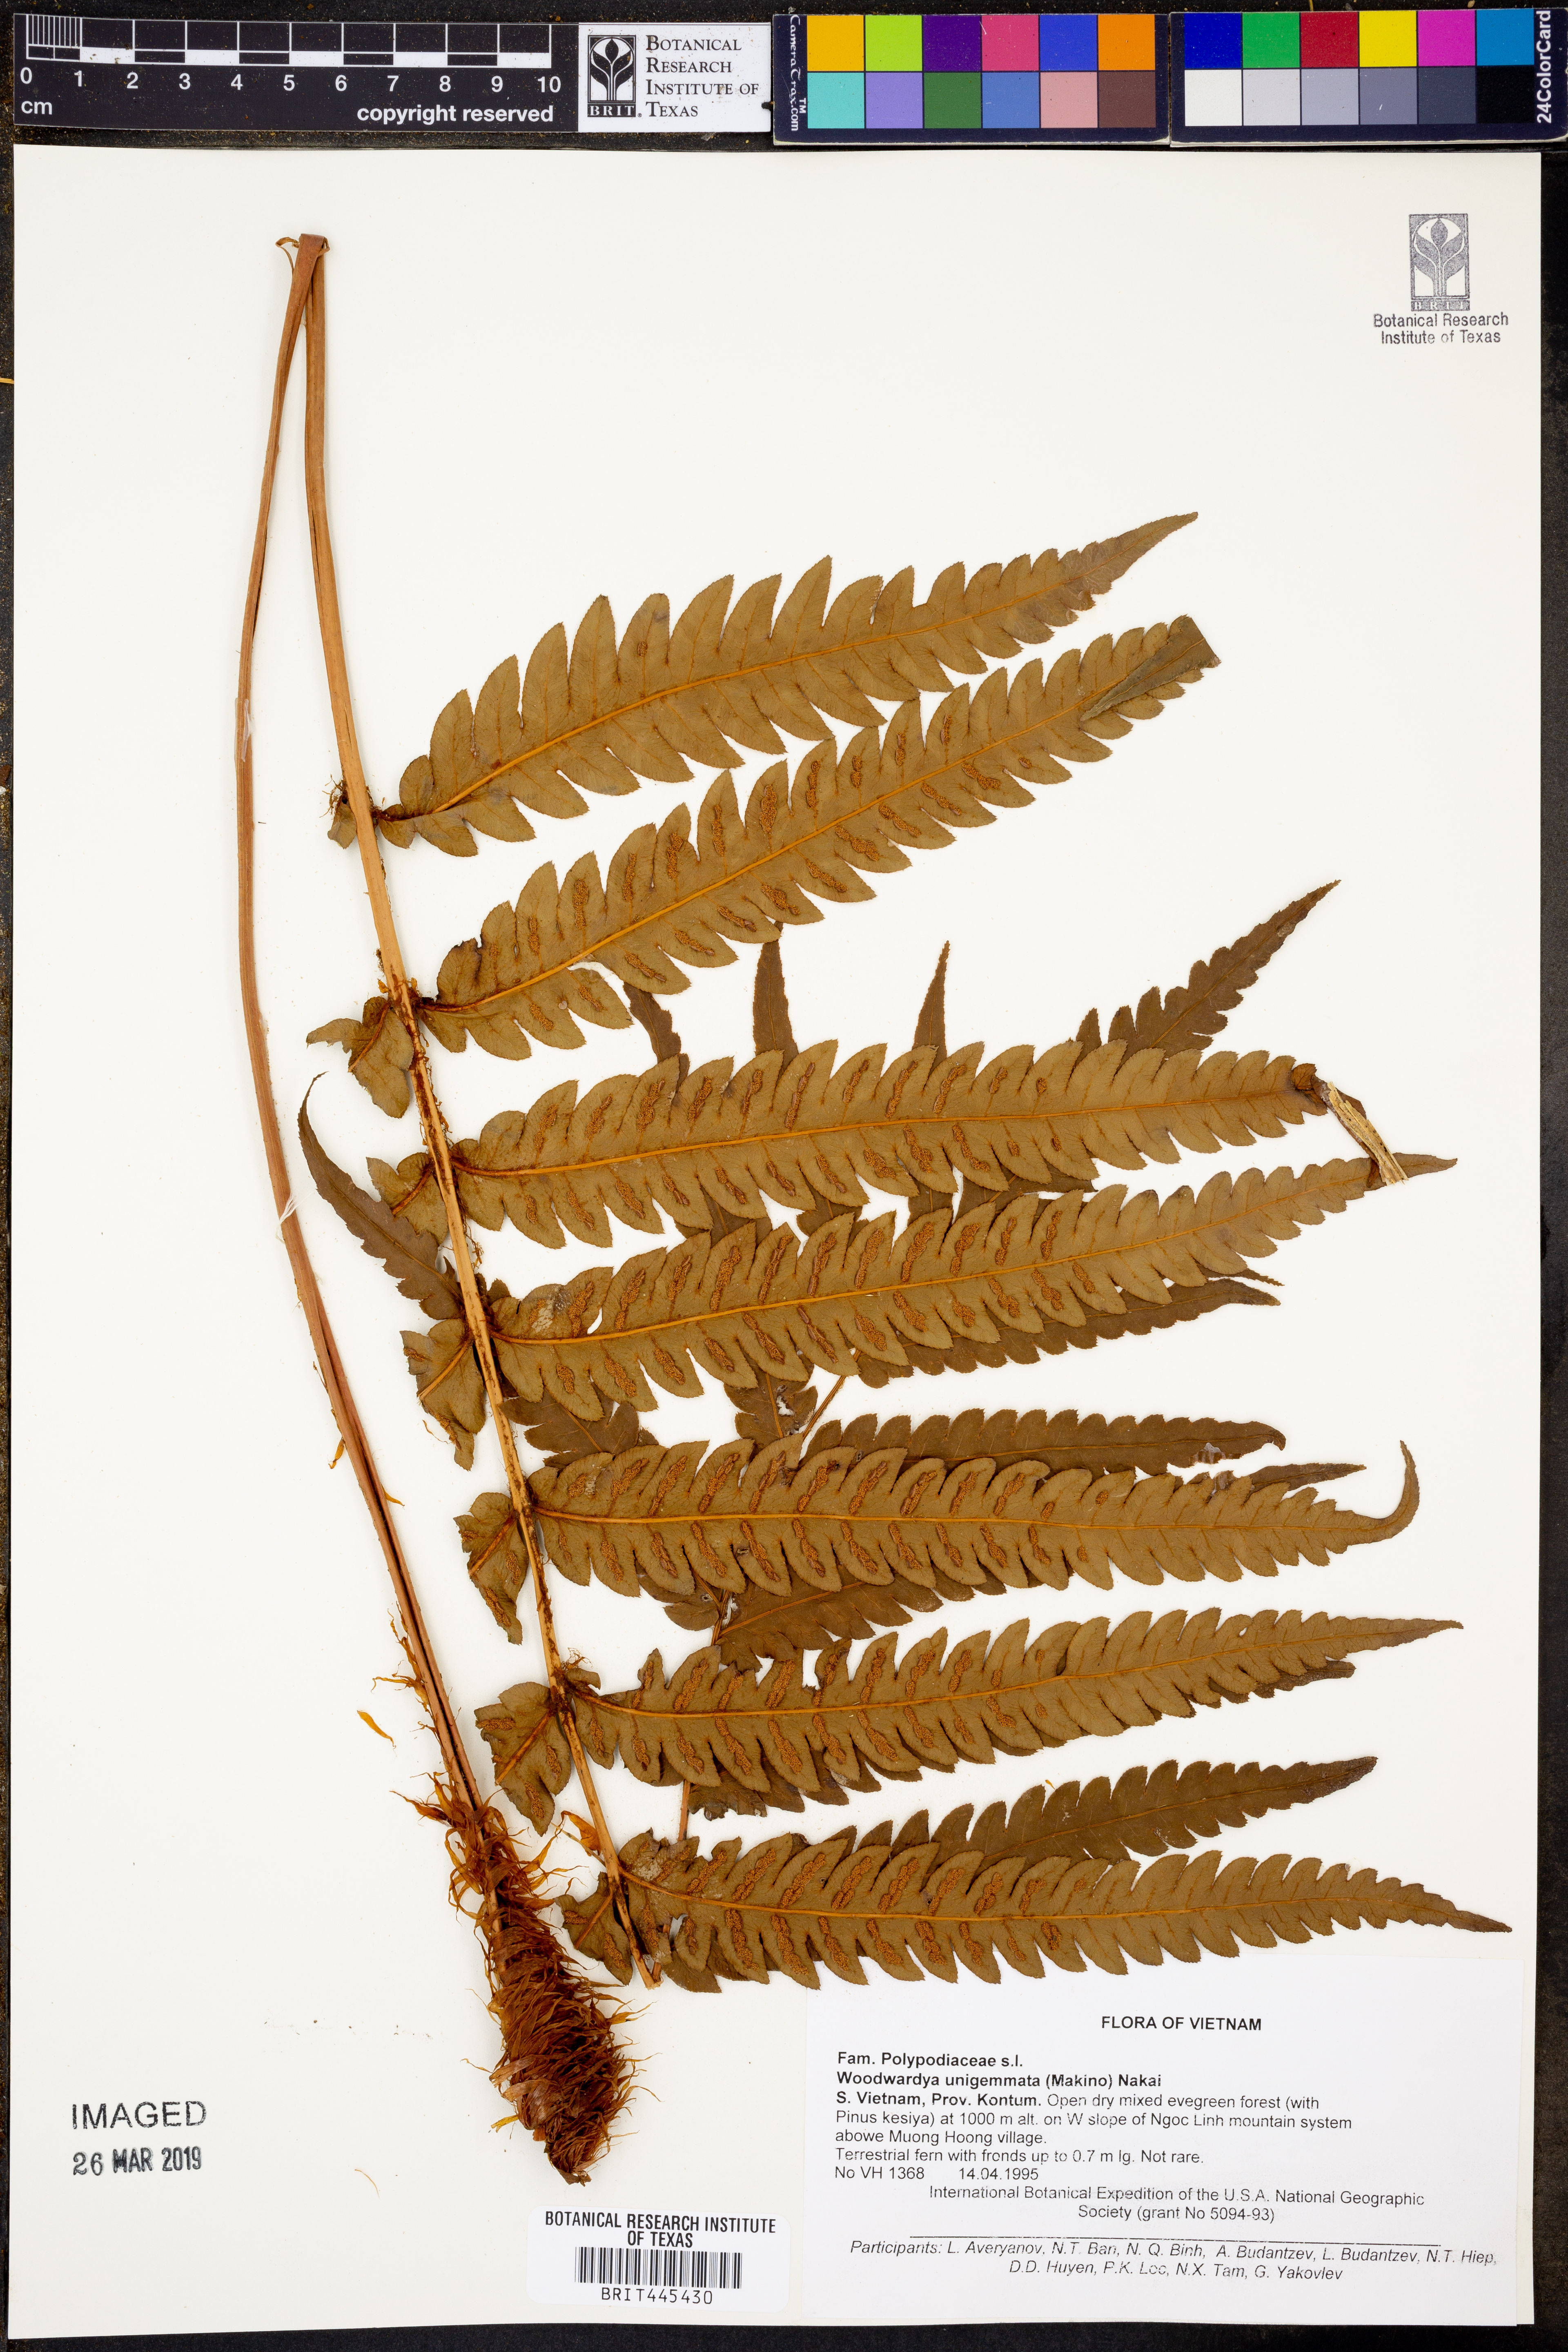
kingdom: Plantae
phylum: Tracheophyta
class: Polypodiopsida
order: Polypodiales
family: Blechnaceae
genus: Woodwardia
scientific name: Woodwardia unigemmata
